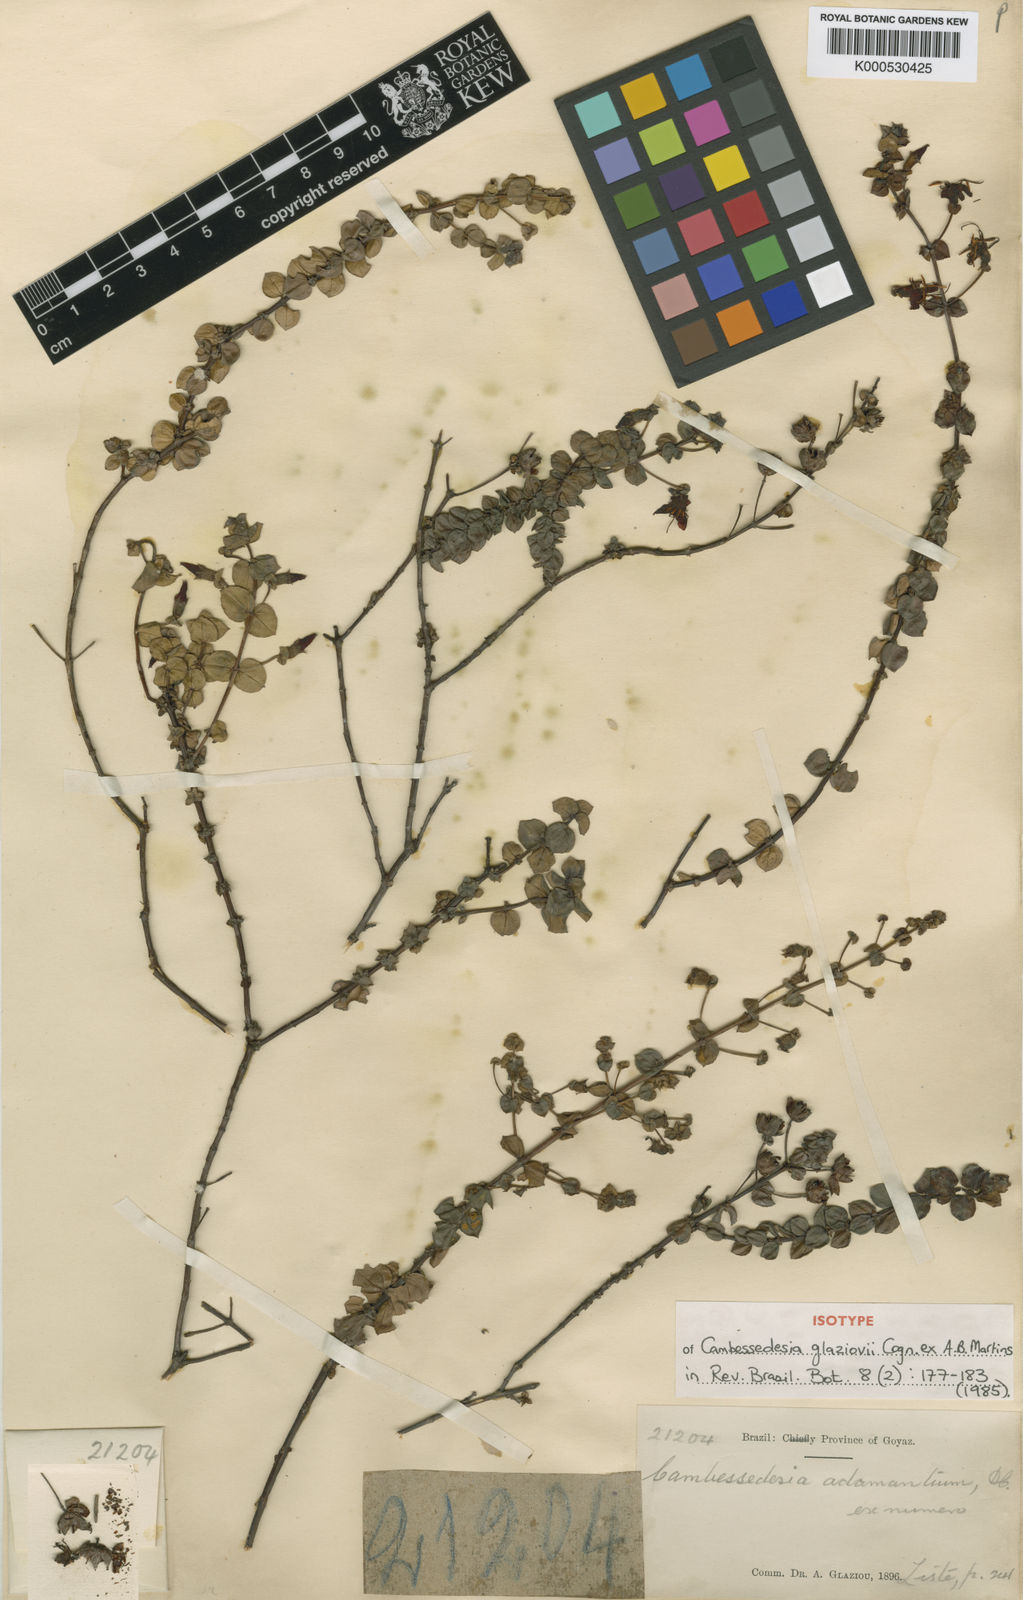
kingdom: Plantae
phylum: Tracheophyta
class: Magnoliopsida
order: Myrtales
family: Melastomataceae
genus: Cambessedesia
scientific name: Cambessedesia glaziovii
